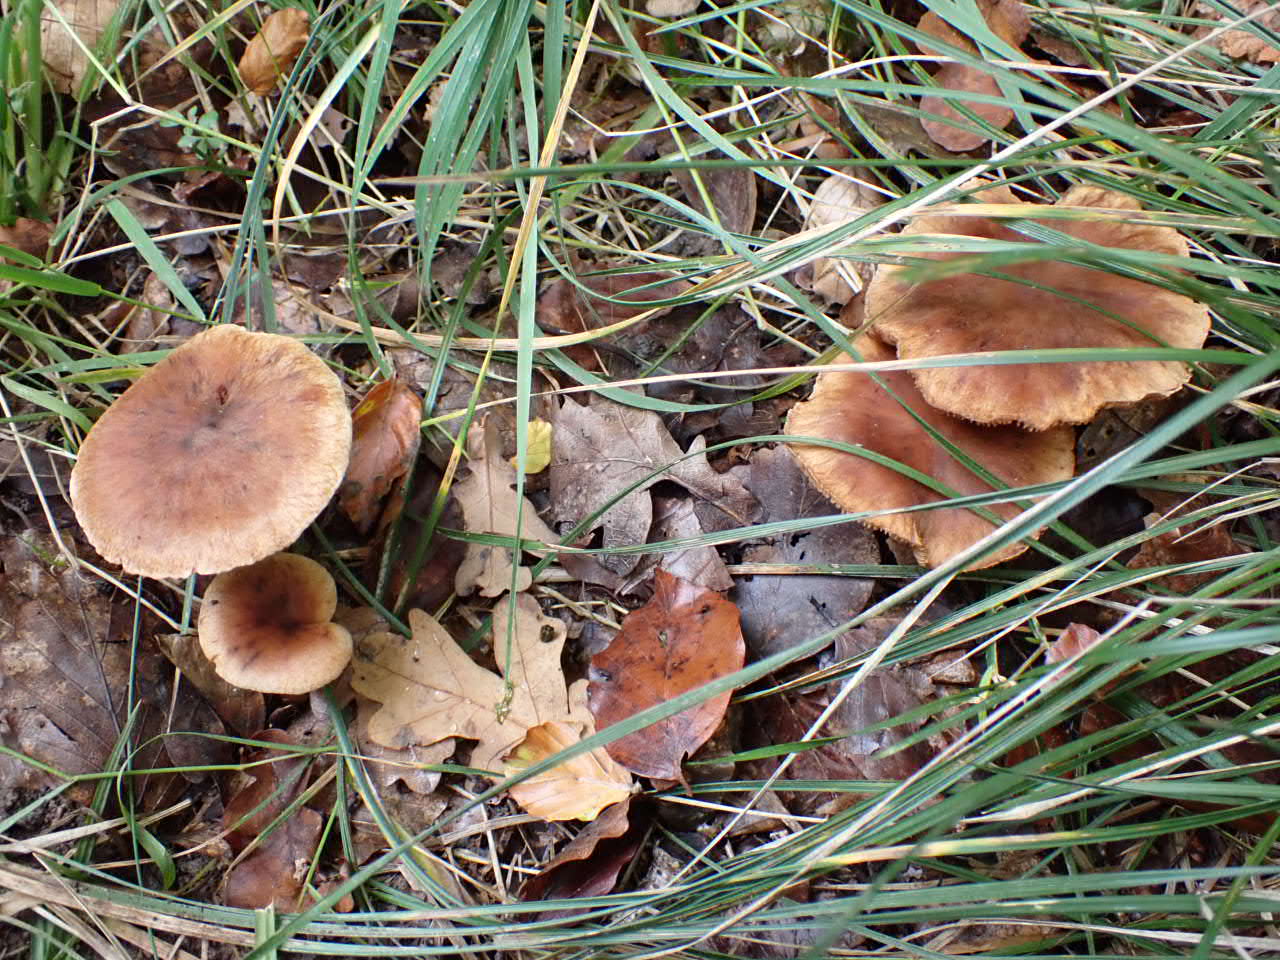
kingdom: Fungi
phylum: Basidiomycota
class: Agaricomycetes
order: Agaricales
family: Cortinariaceae
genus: Cortinarius
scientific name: Cortinarius
